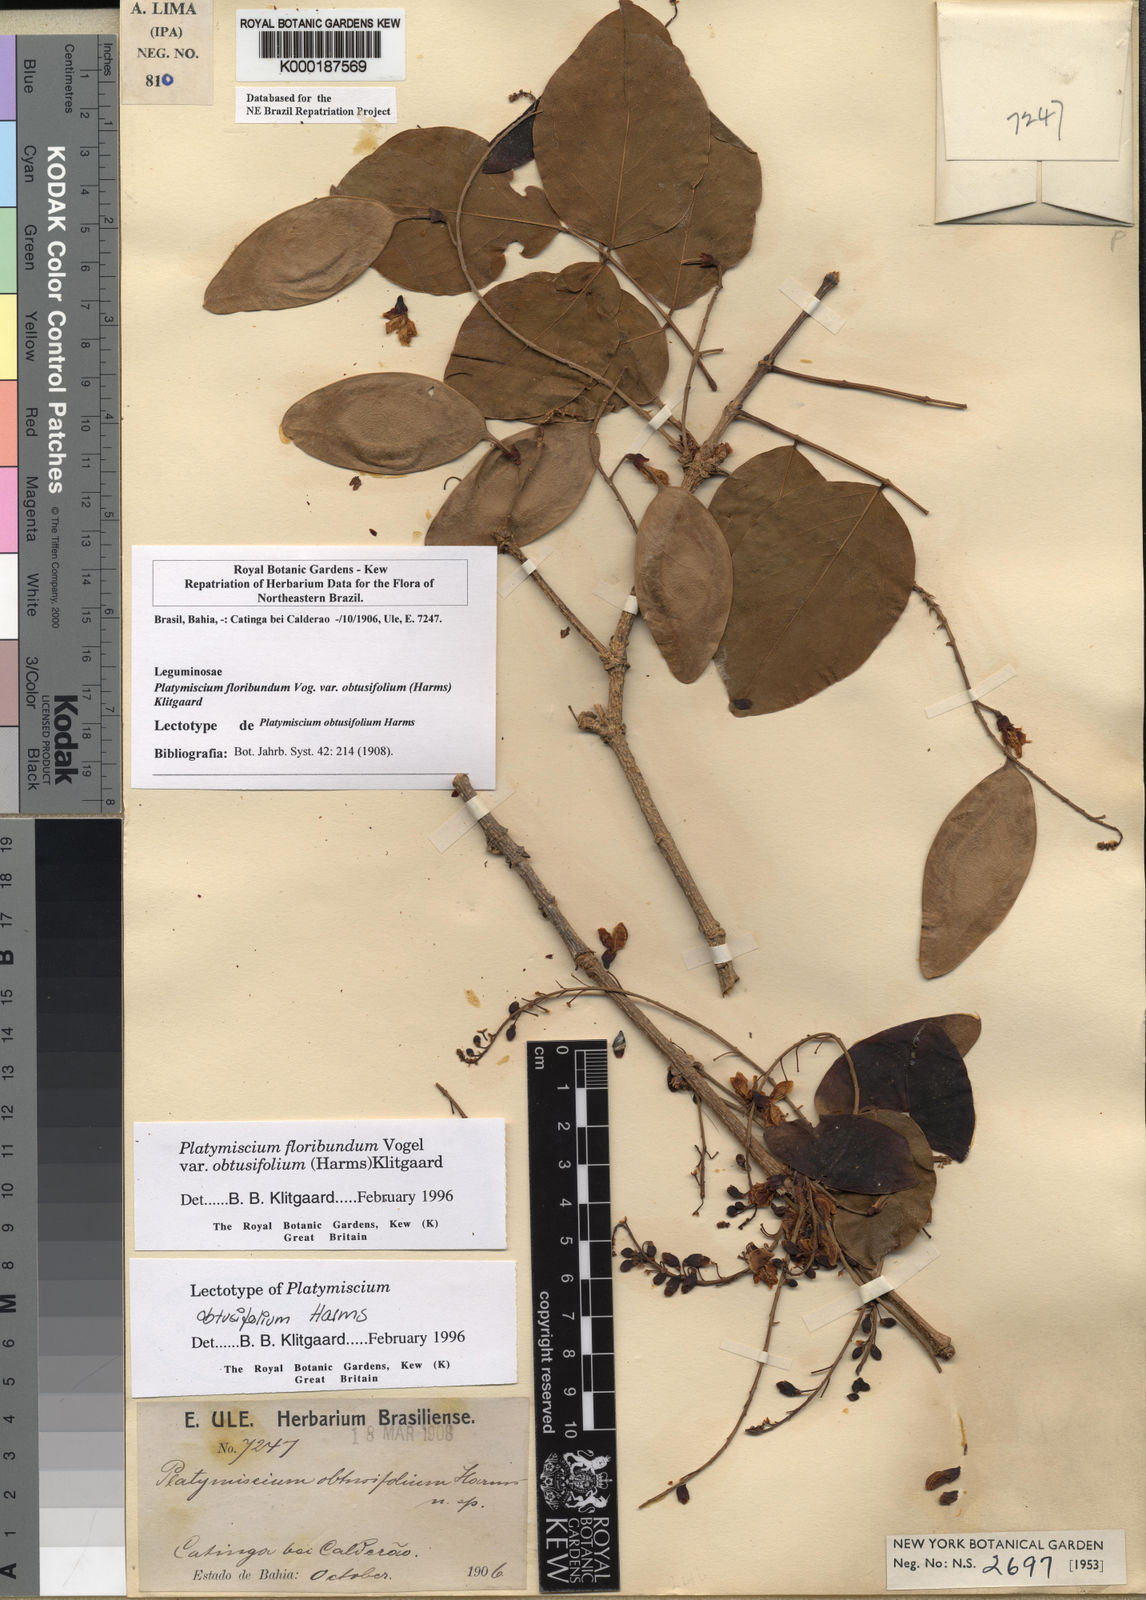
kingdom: Plantae
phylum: Tracheophyta
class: Magnoliopsida
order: Fabales
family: Fabaceae
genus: Platymiscium
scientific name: Platymiscium floribundum
